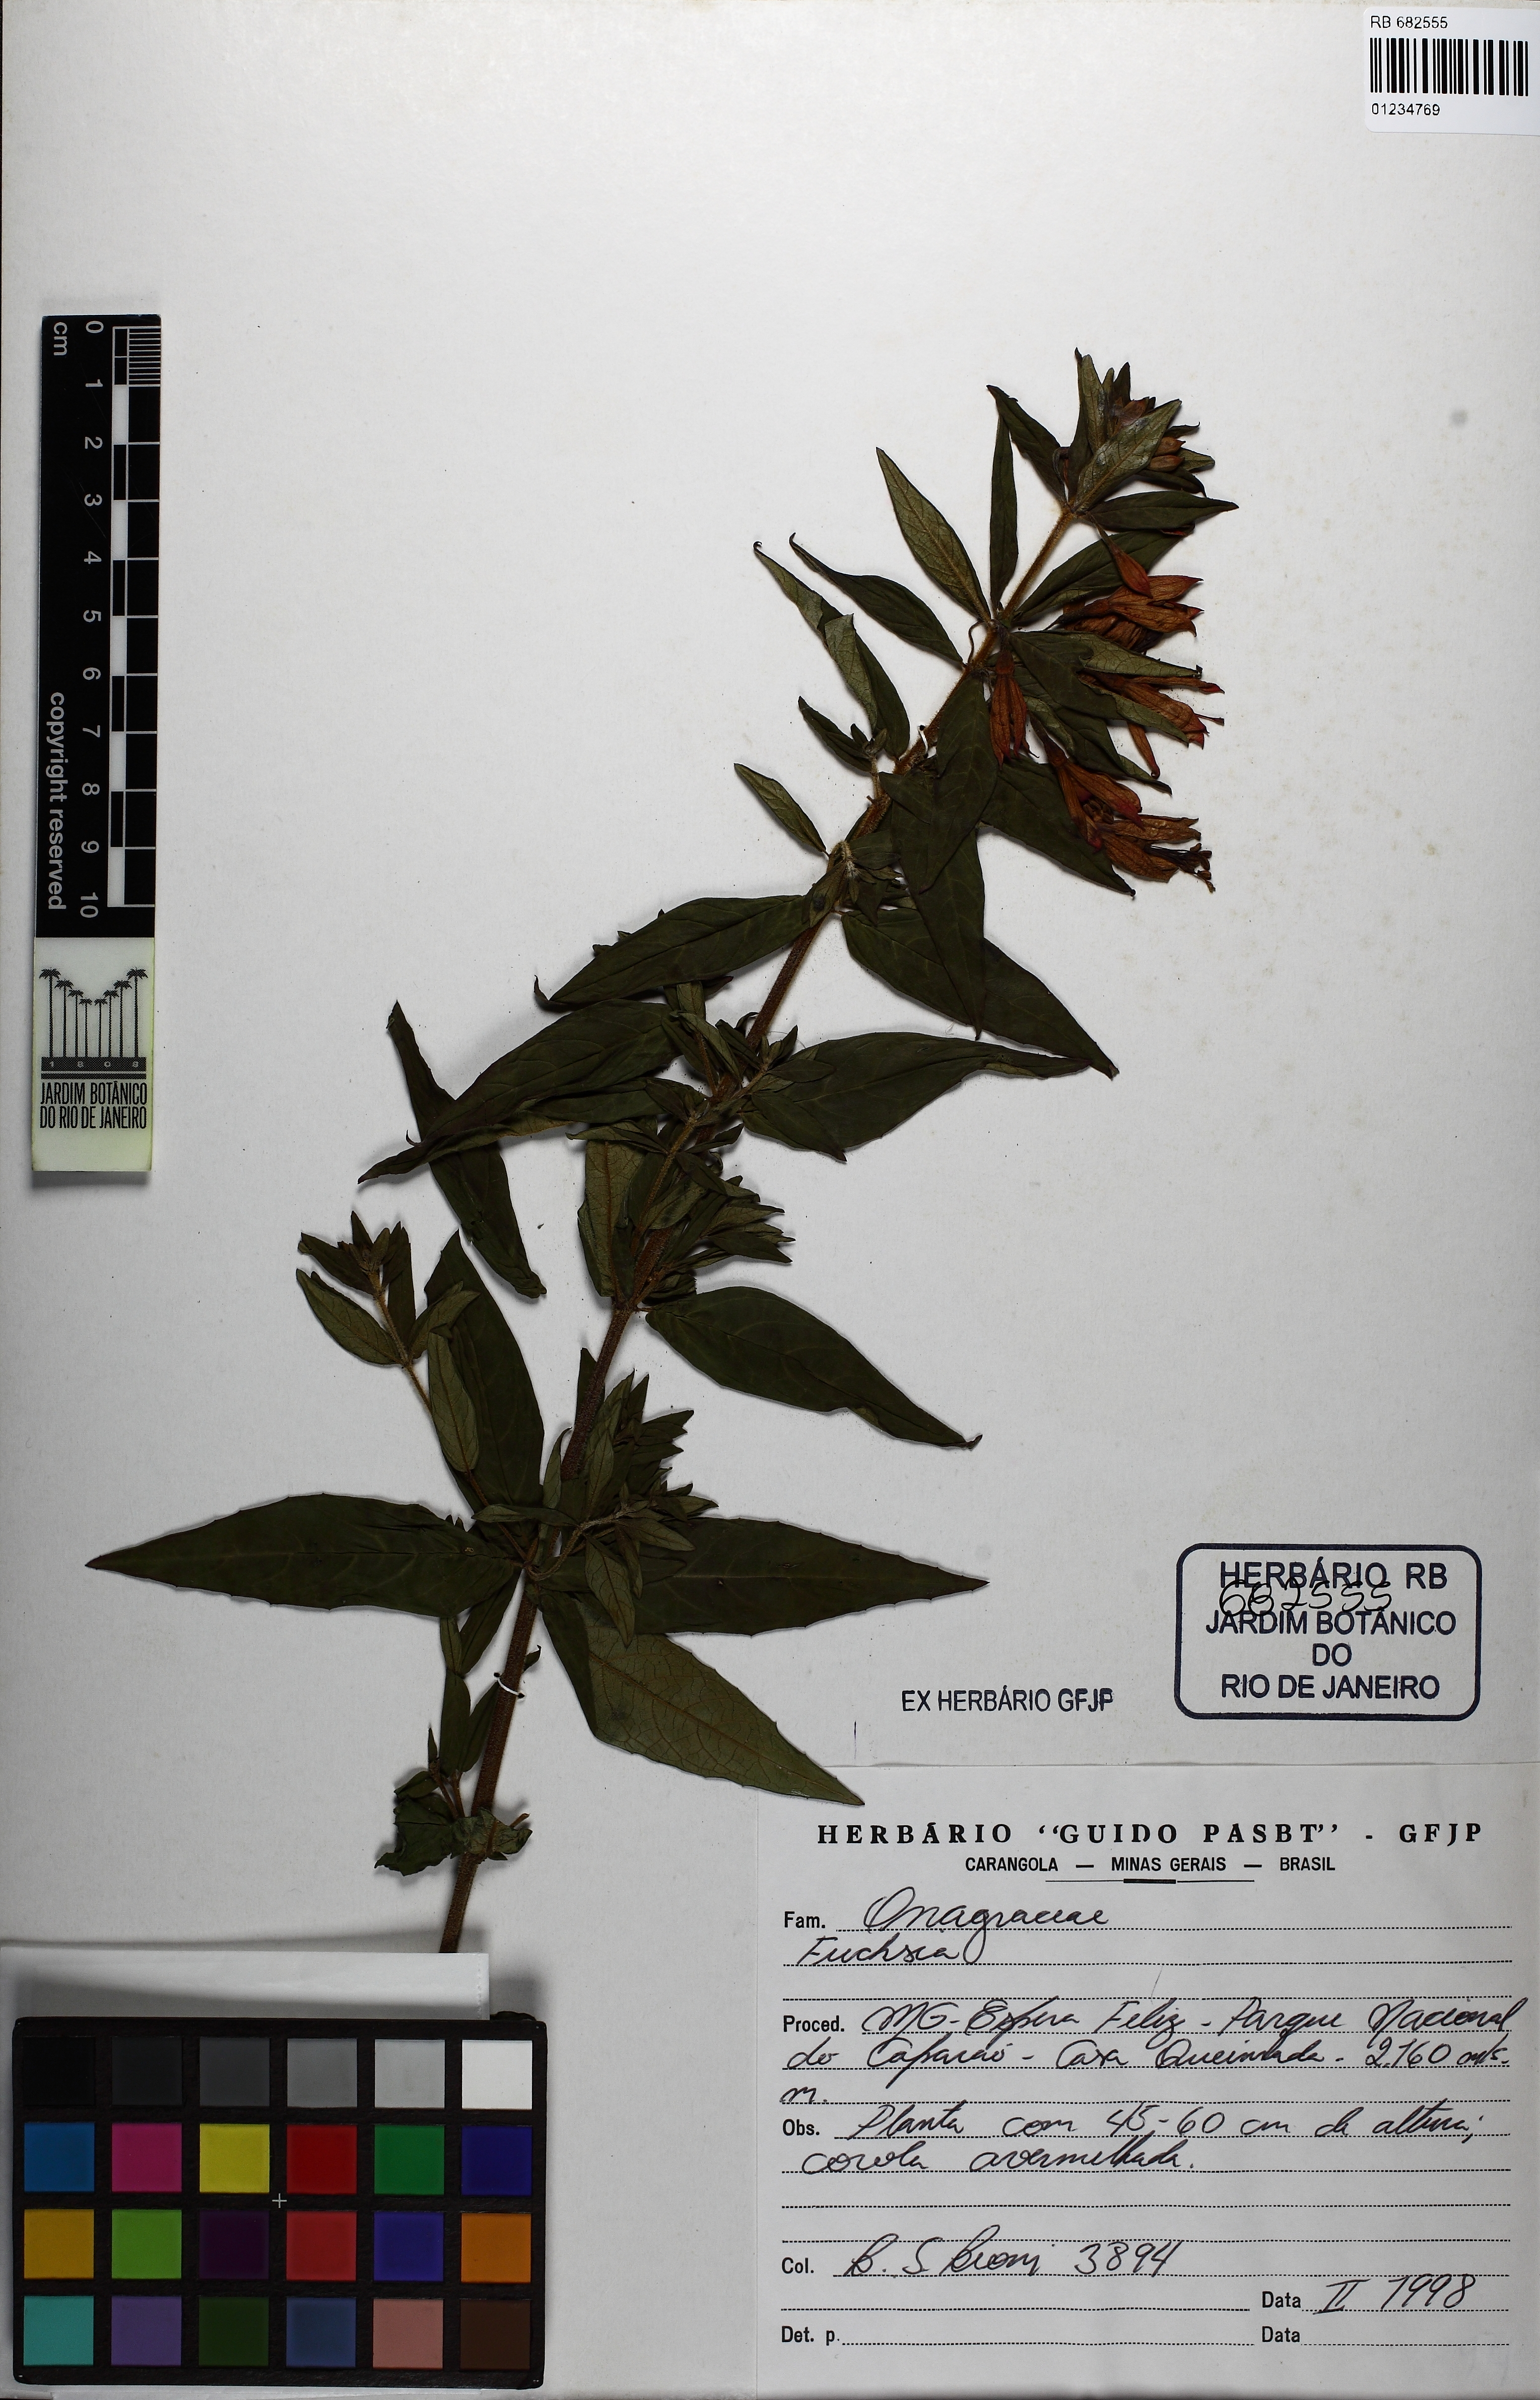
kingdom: Plantae
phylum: Tracheophyta
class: Magnoliopsida
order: Myrtales
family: Onagraceae
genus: Fuchsia
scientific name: Fuchsia
